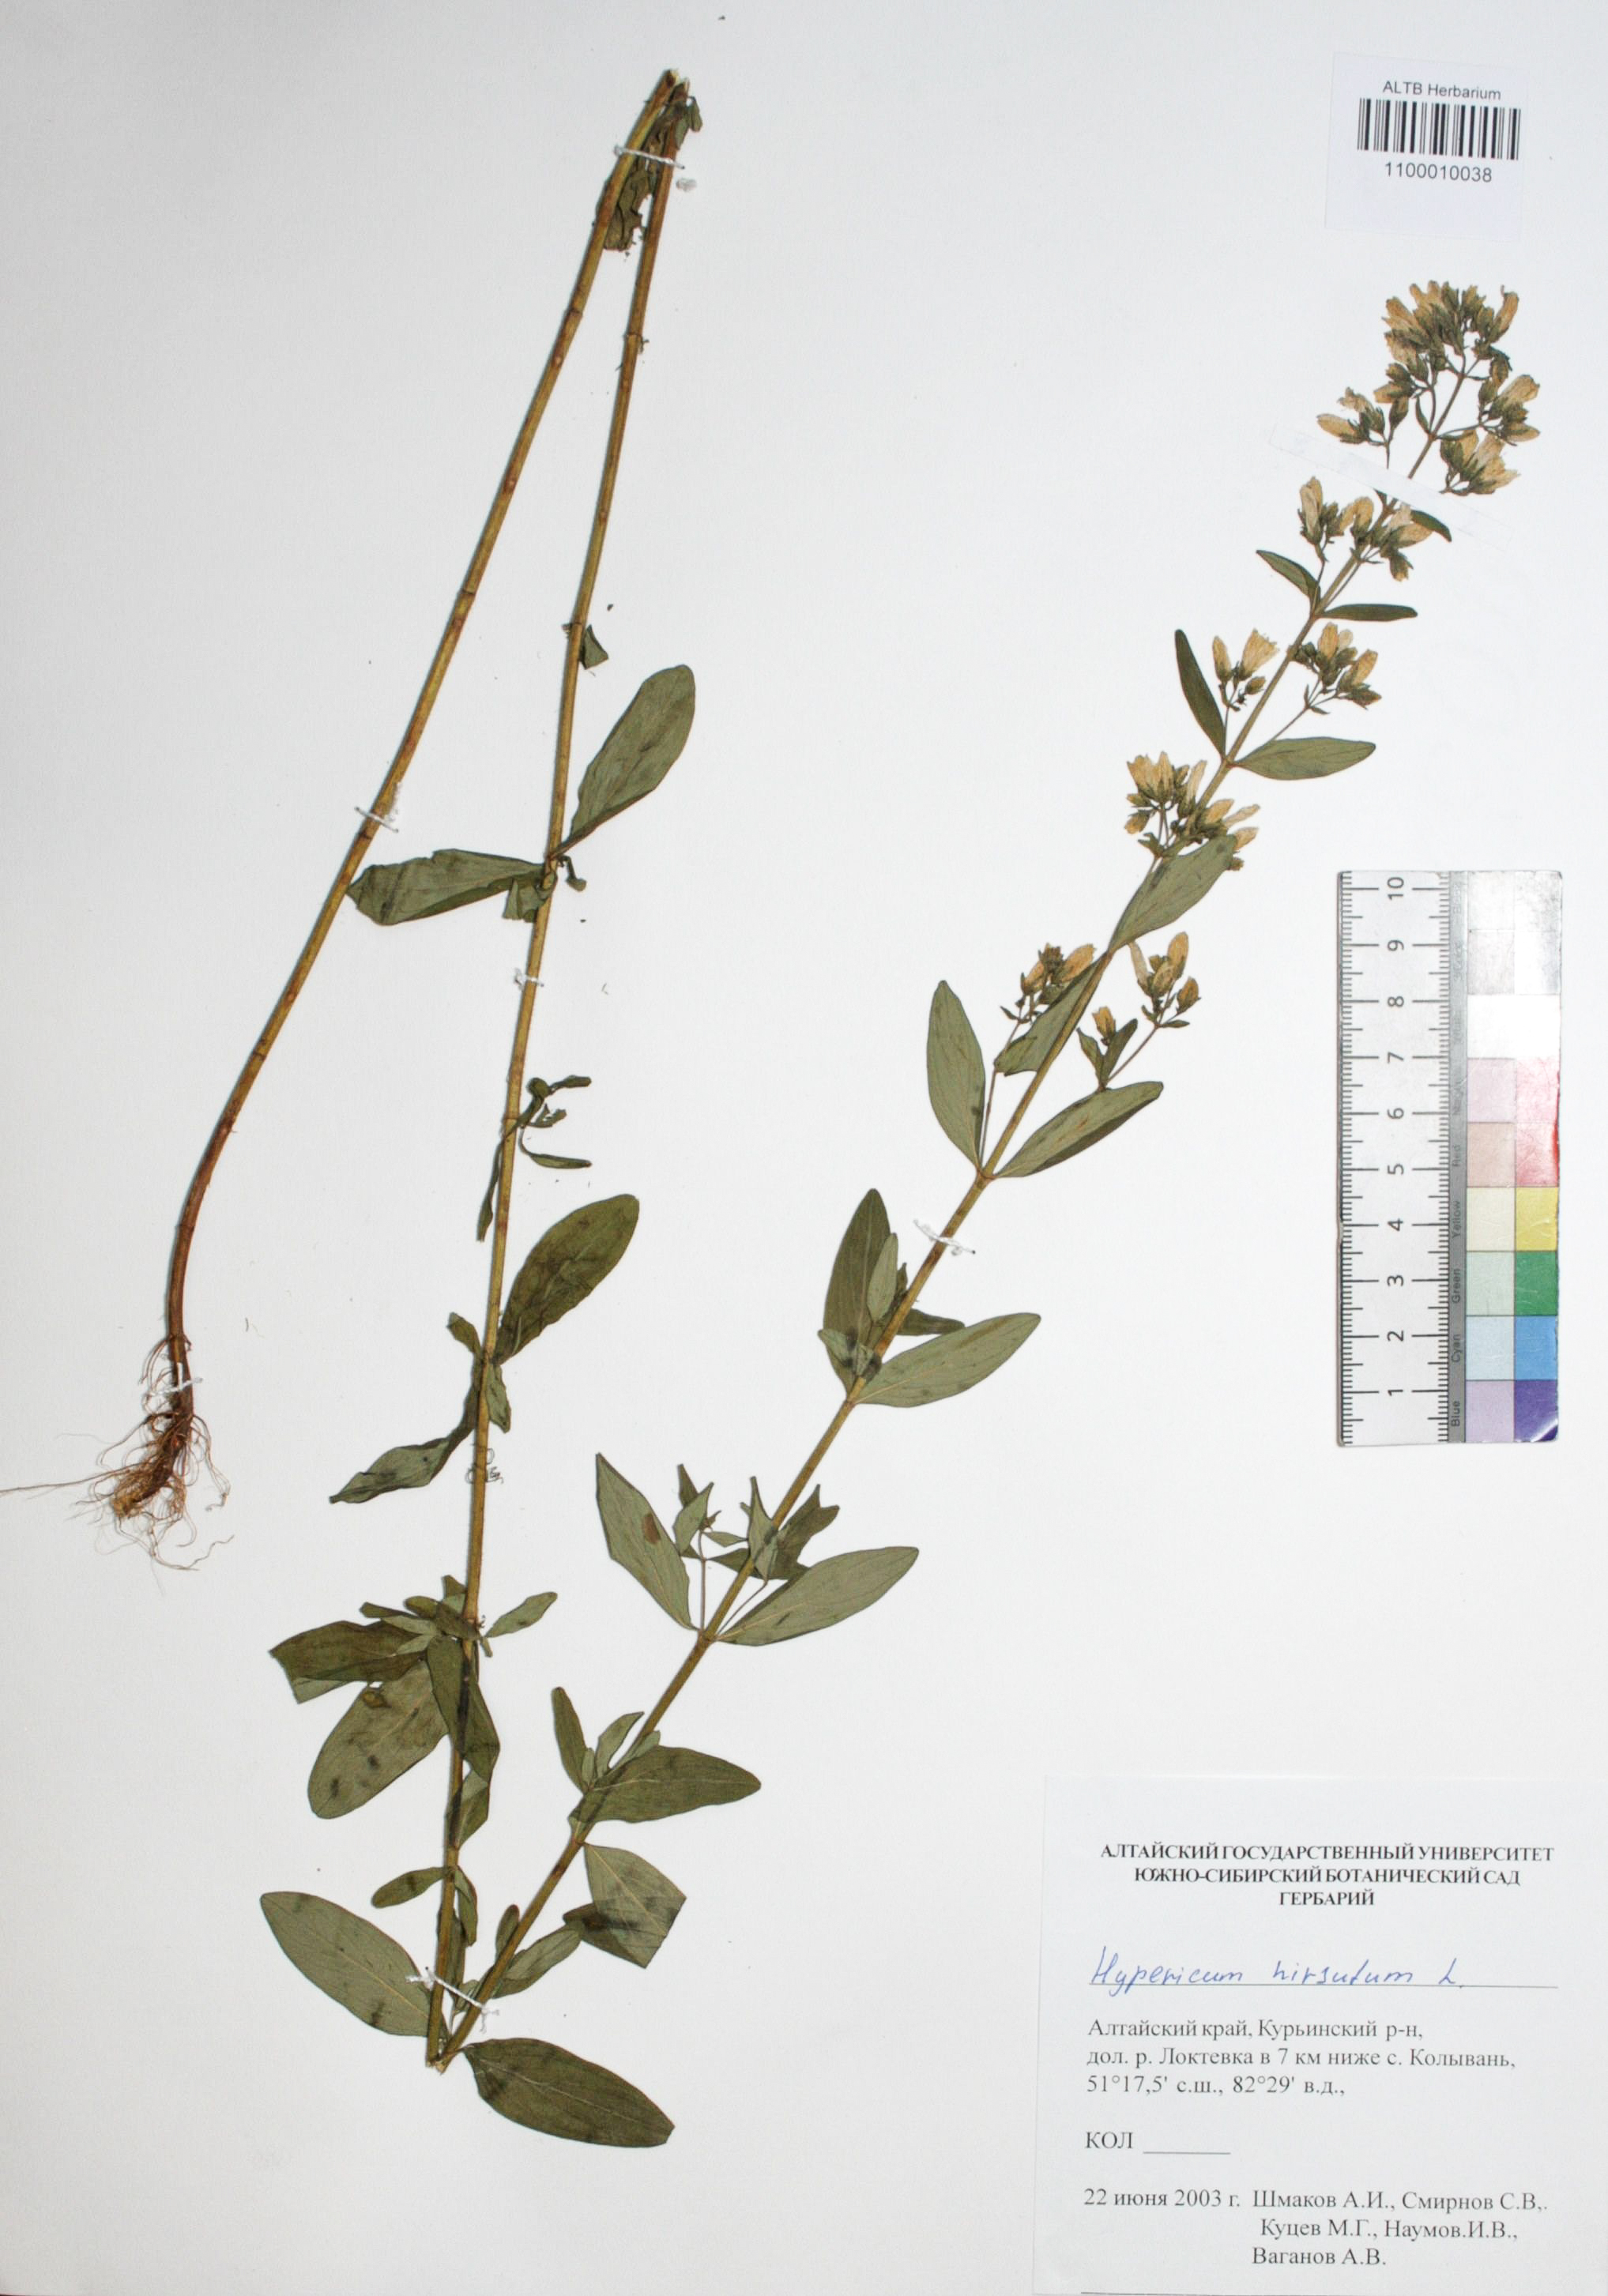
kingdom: Plantae
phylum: Tracheophyta
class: Magnoliopsida
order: Malpighiales
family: Hypericaceae
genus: Hypericum
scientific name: Hypericum hirsutum
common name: Hairy st. john's-wort
